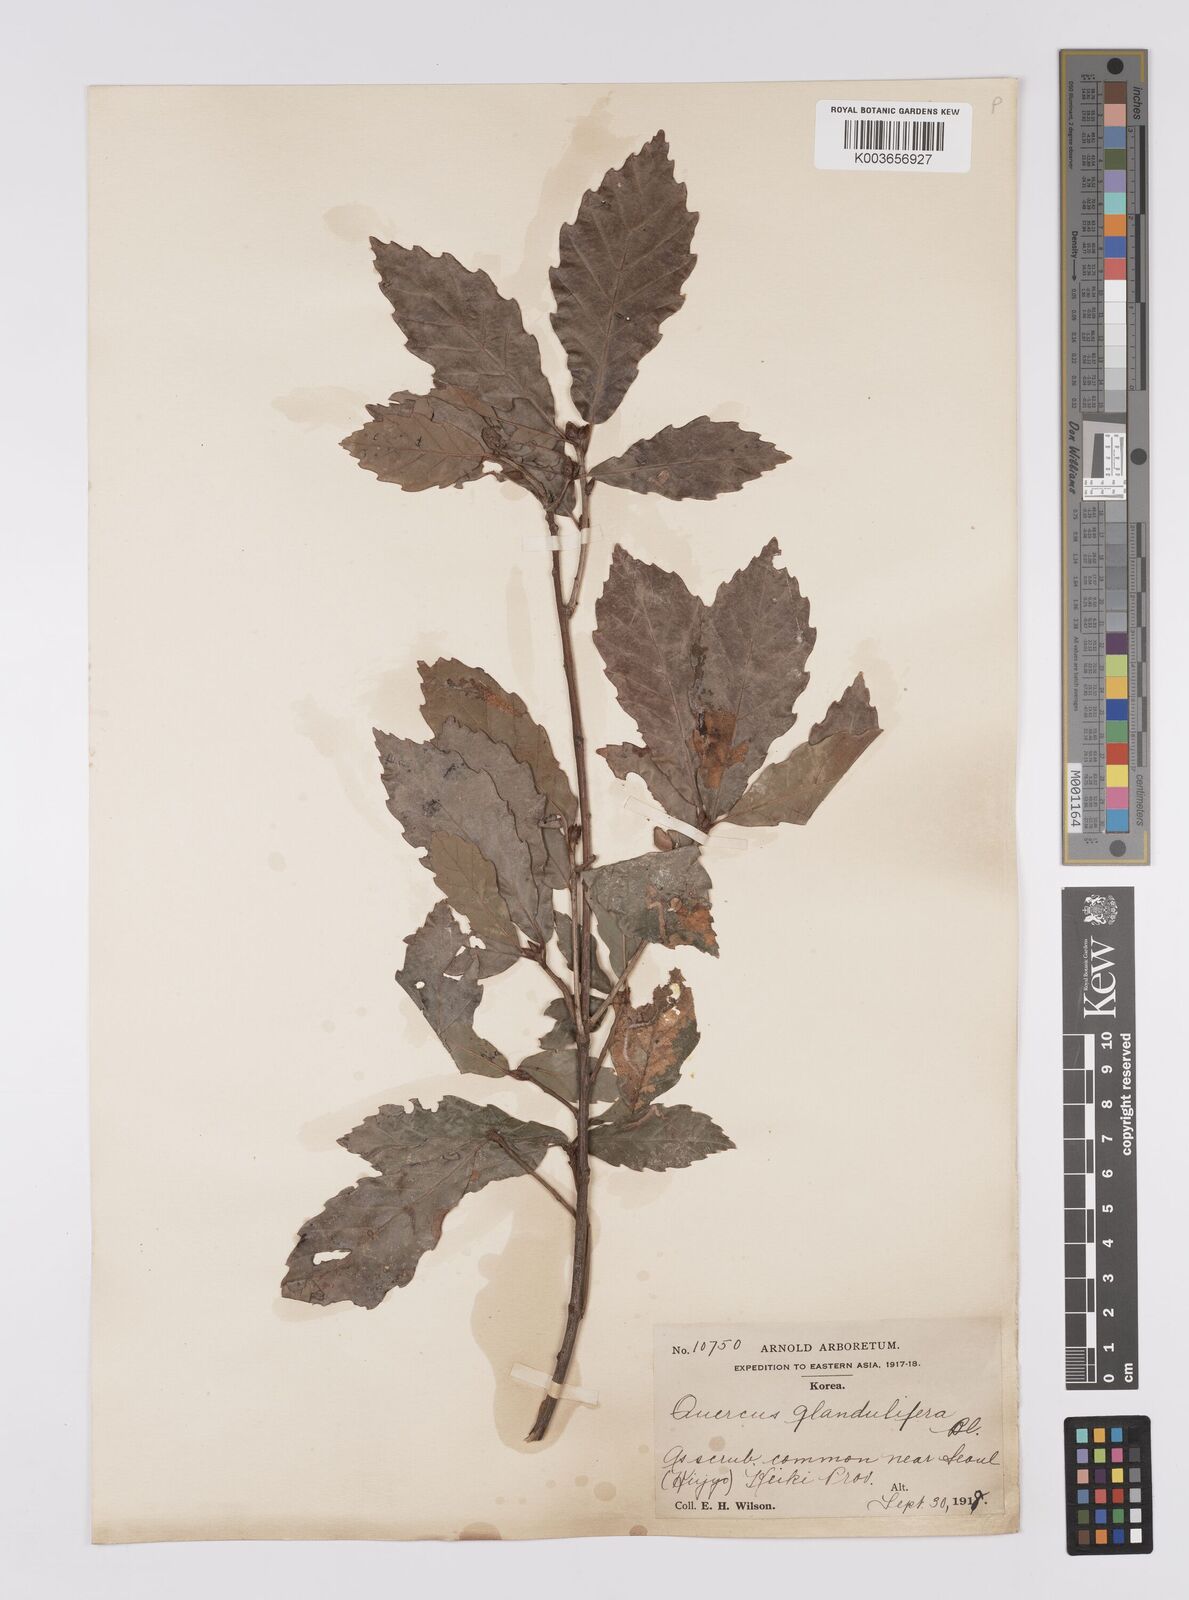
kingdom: Plantae
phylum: Tracheophyta
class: Magnoliopsida
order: Fagales
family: Fagaceae
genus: Quercus
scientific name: Quercus serrata
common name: Bao li
